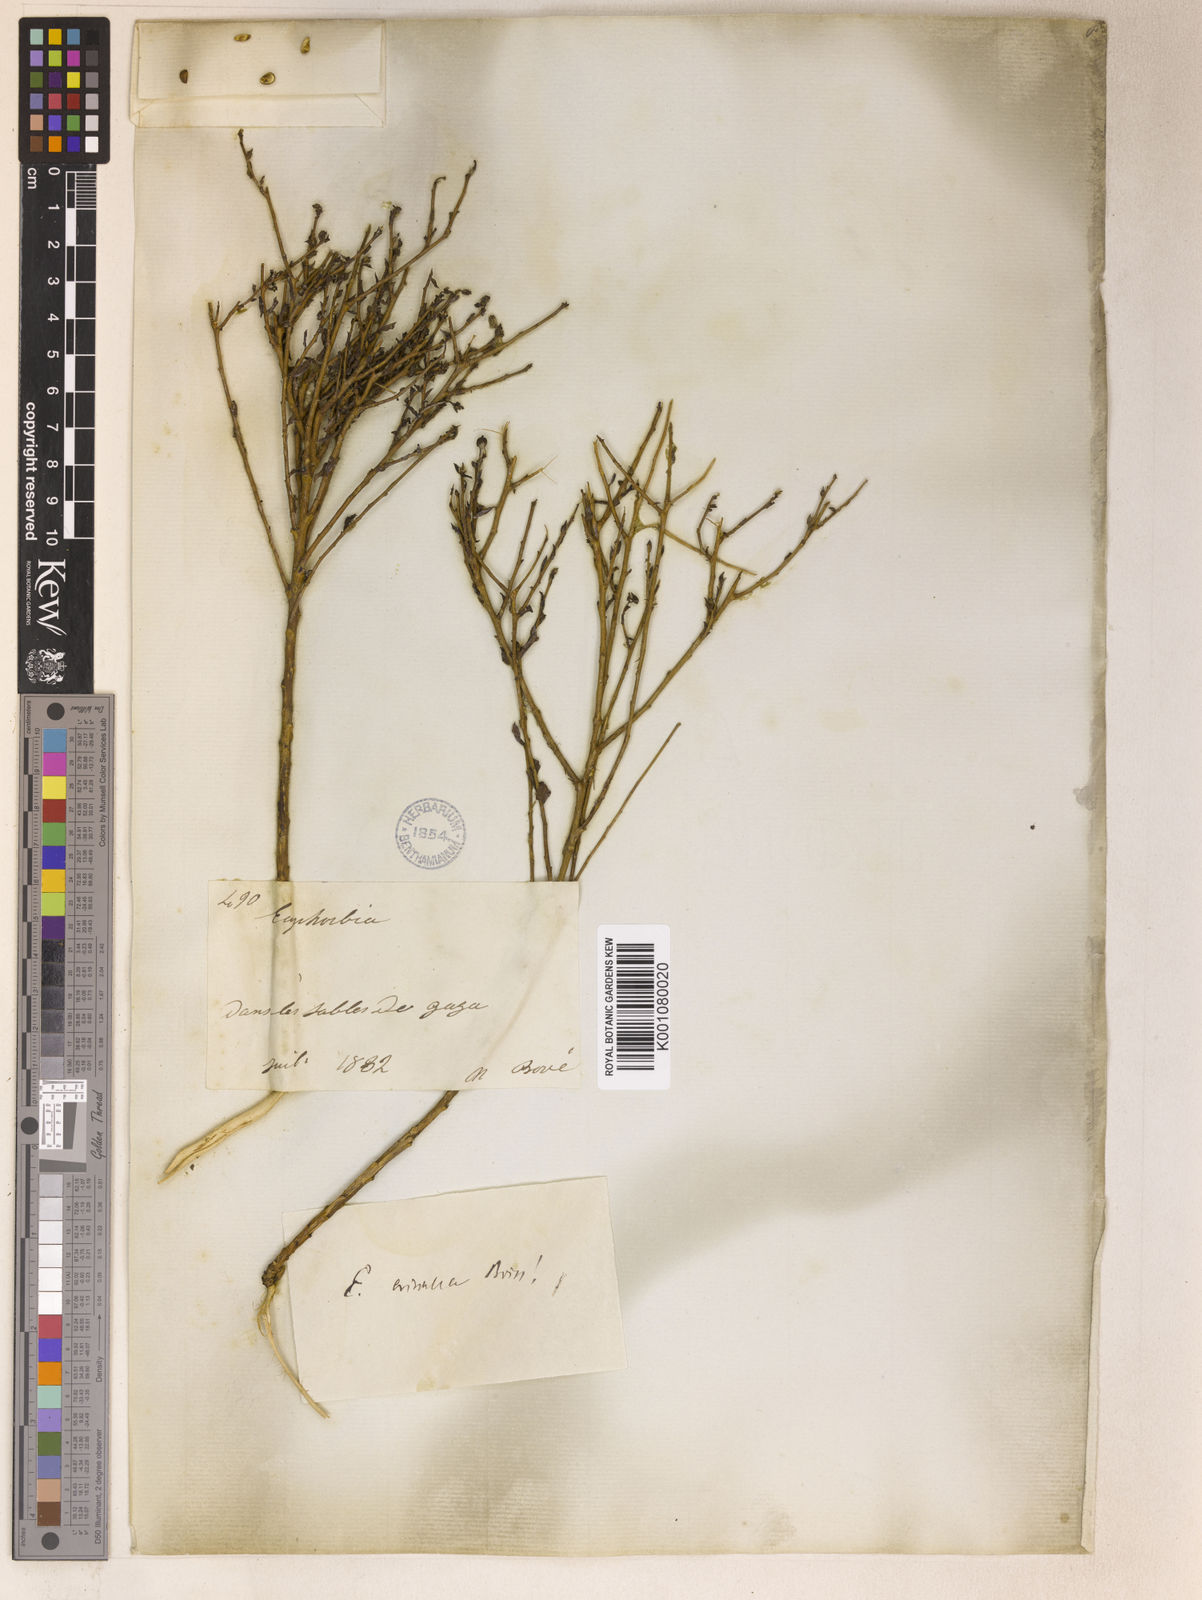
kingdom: Plantae
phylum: Tracheophyta
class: Magnoliopsida
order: Malpighiales
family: Euphorbiaceae
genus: Euphorbia
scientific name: Euphorbia erinacea
